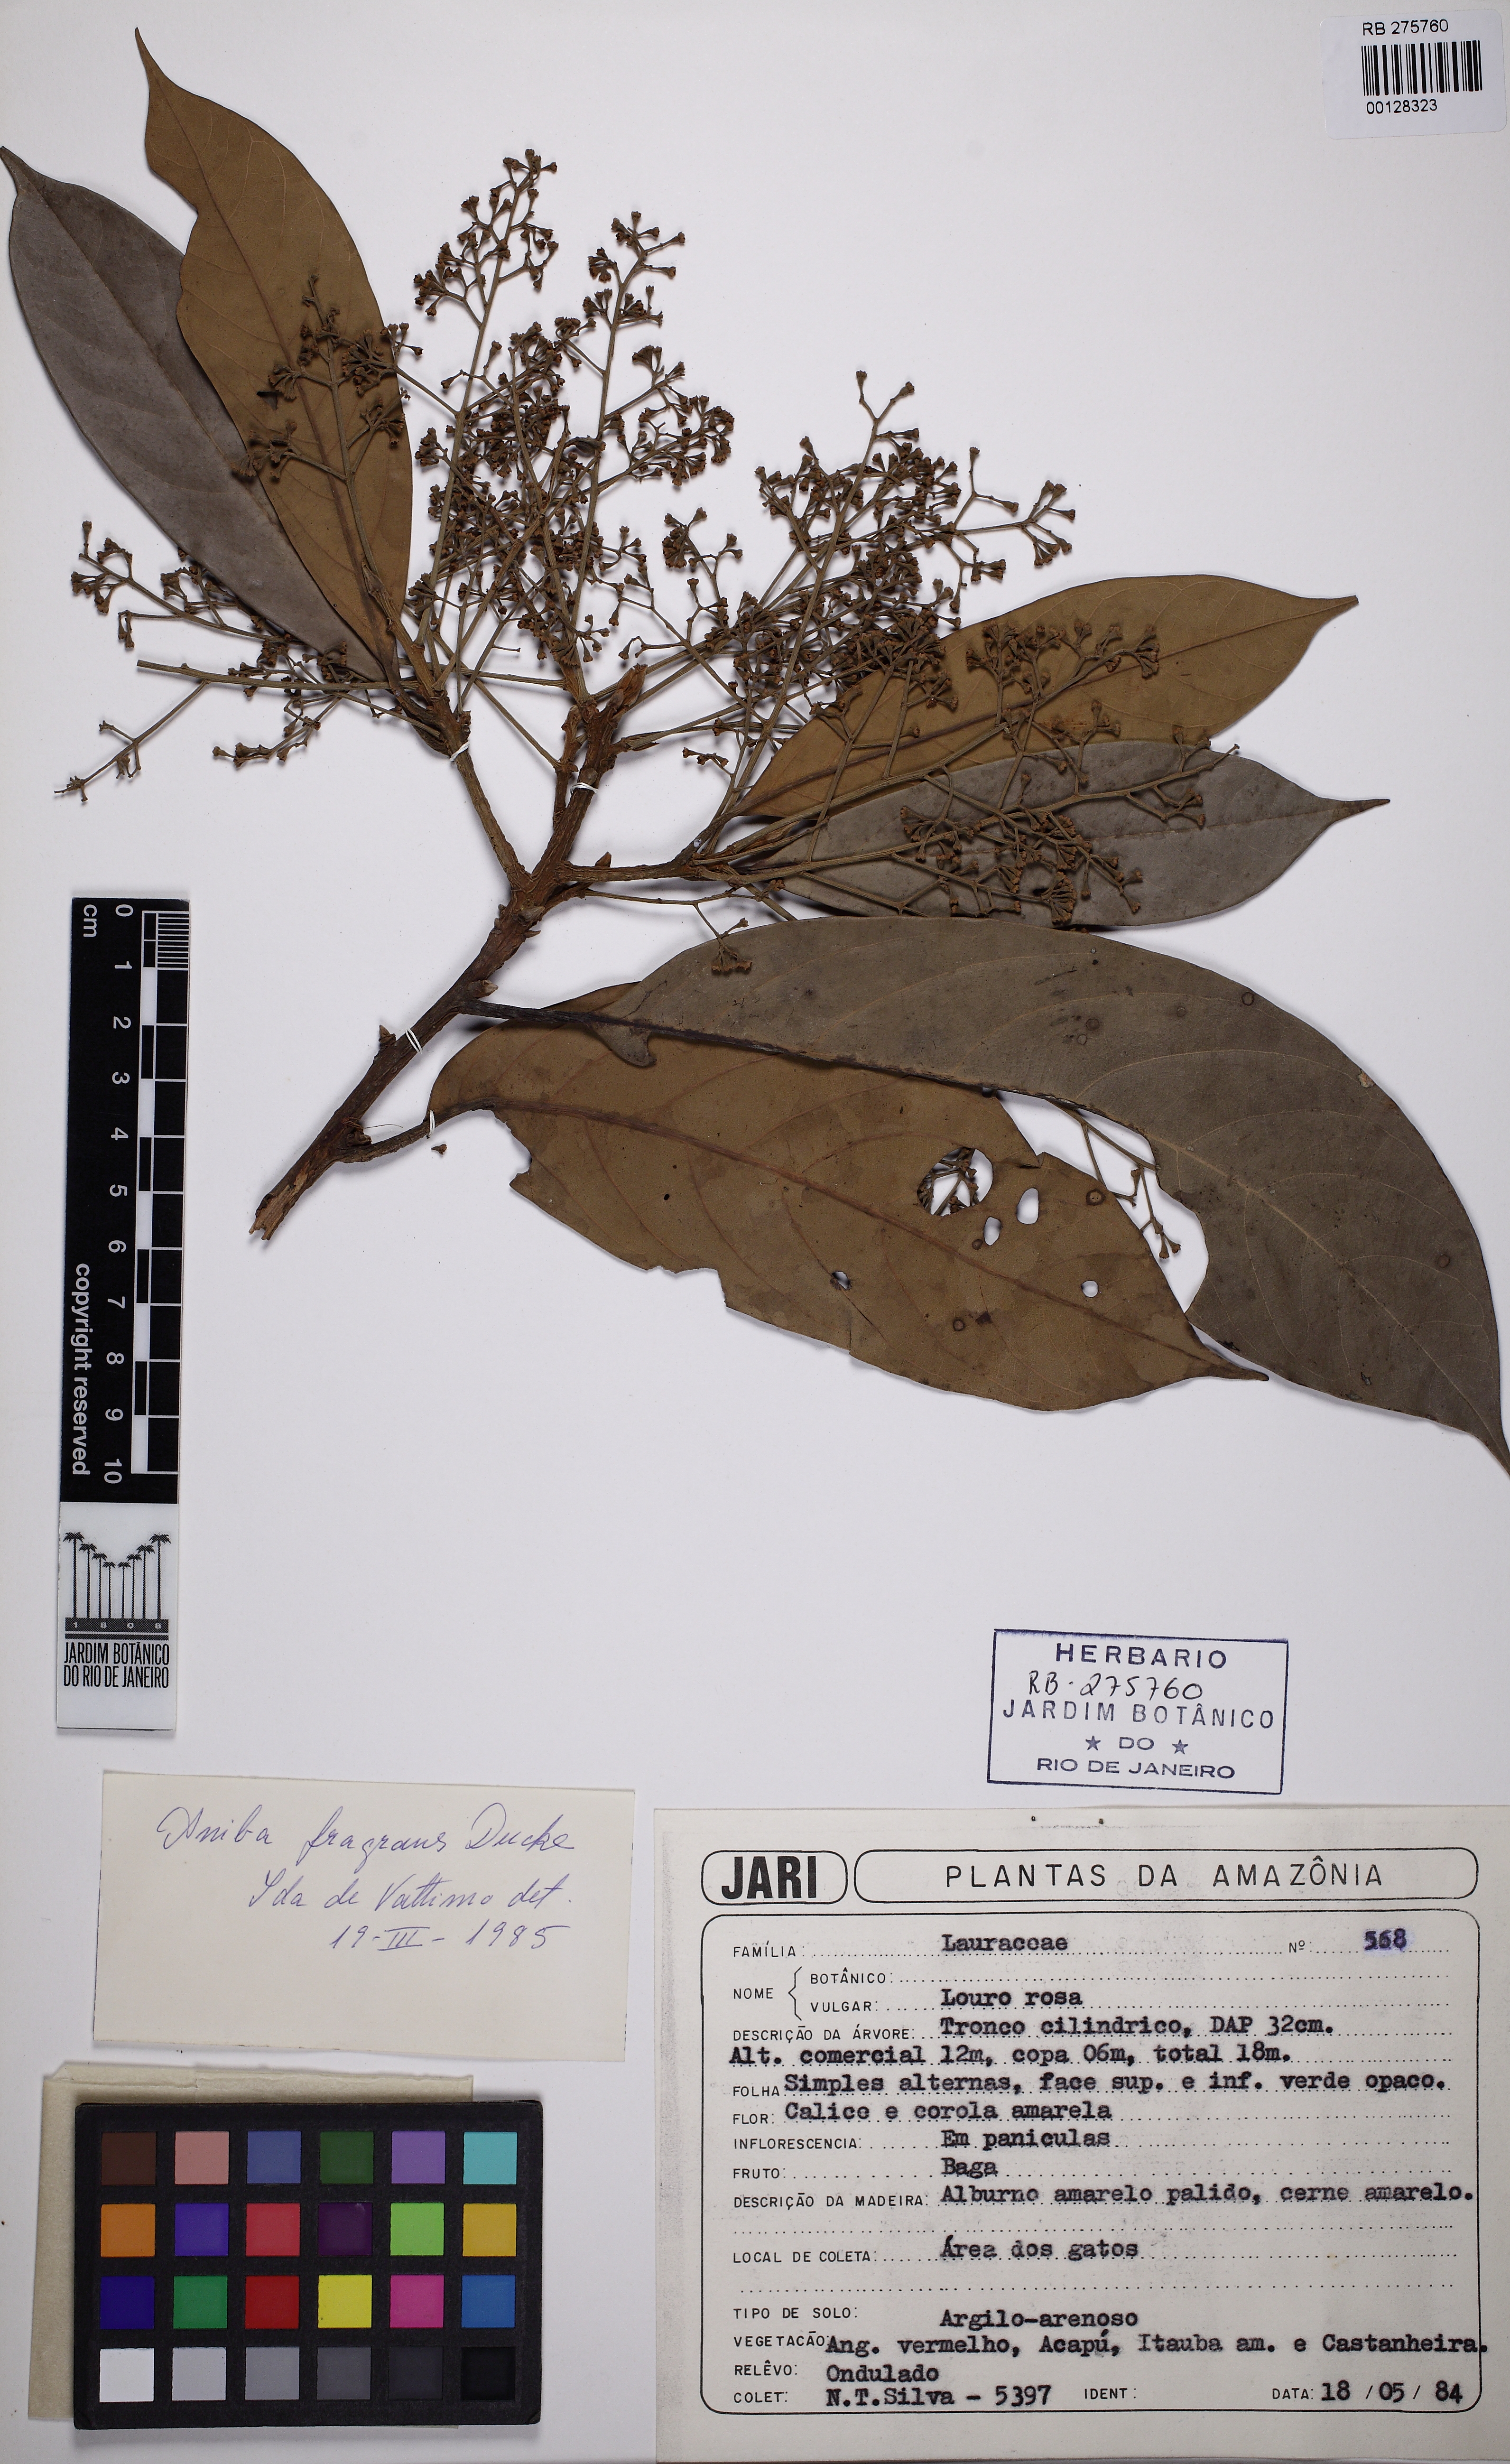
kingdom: Plantae
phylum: Tracheophyta
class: Magnoliopsida
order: Laurales
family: Lauraceae
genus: Aniba
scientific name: Aniba parviflora
